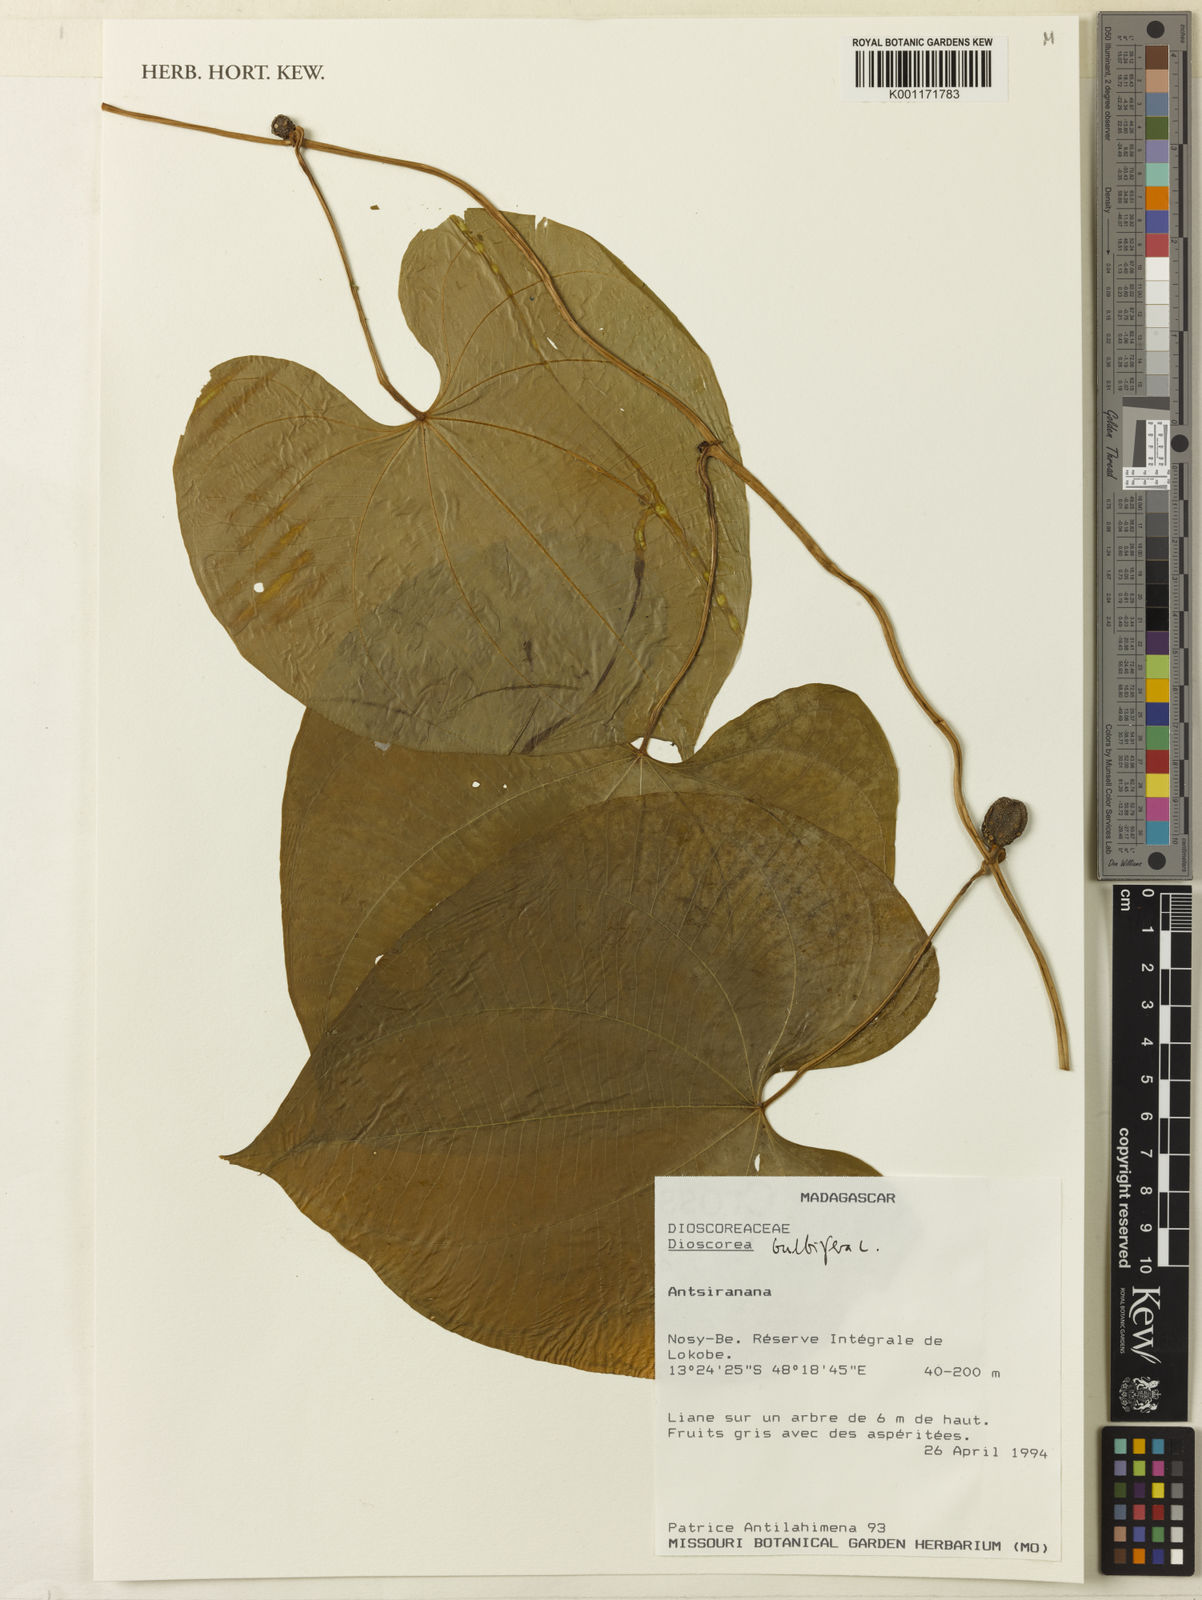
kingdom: Plantae
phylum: Tracheophyta
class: Liliopsida
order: Dioscoreales
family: Dioscoreaceae
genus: Dioscorea
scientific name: Dioscorea bulbifera
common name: Air yam
